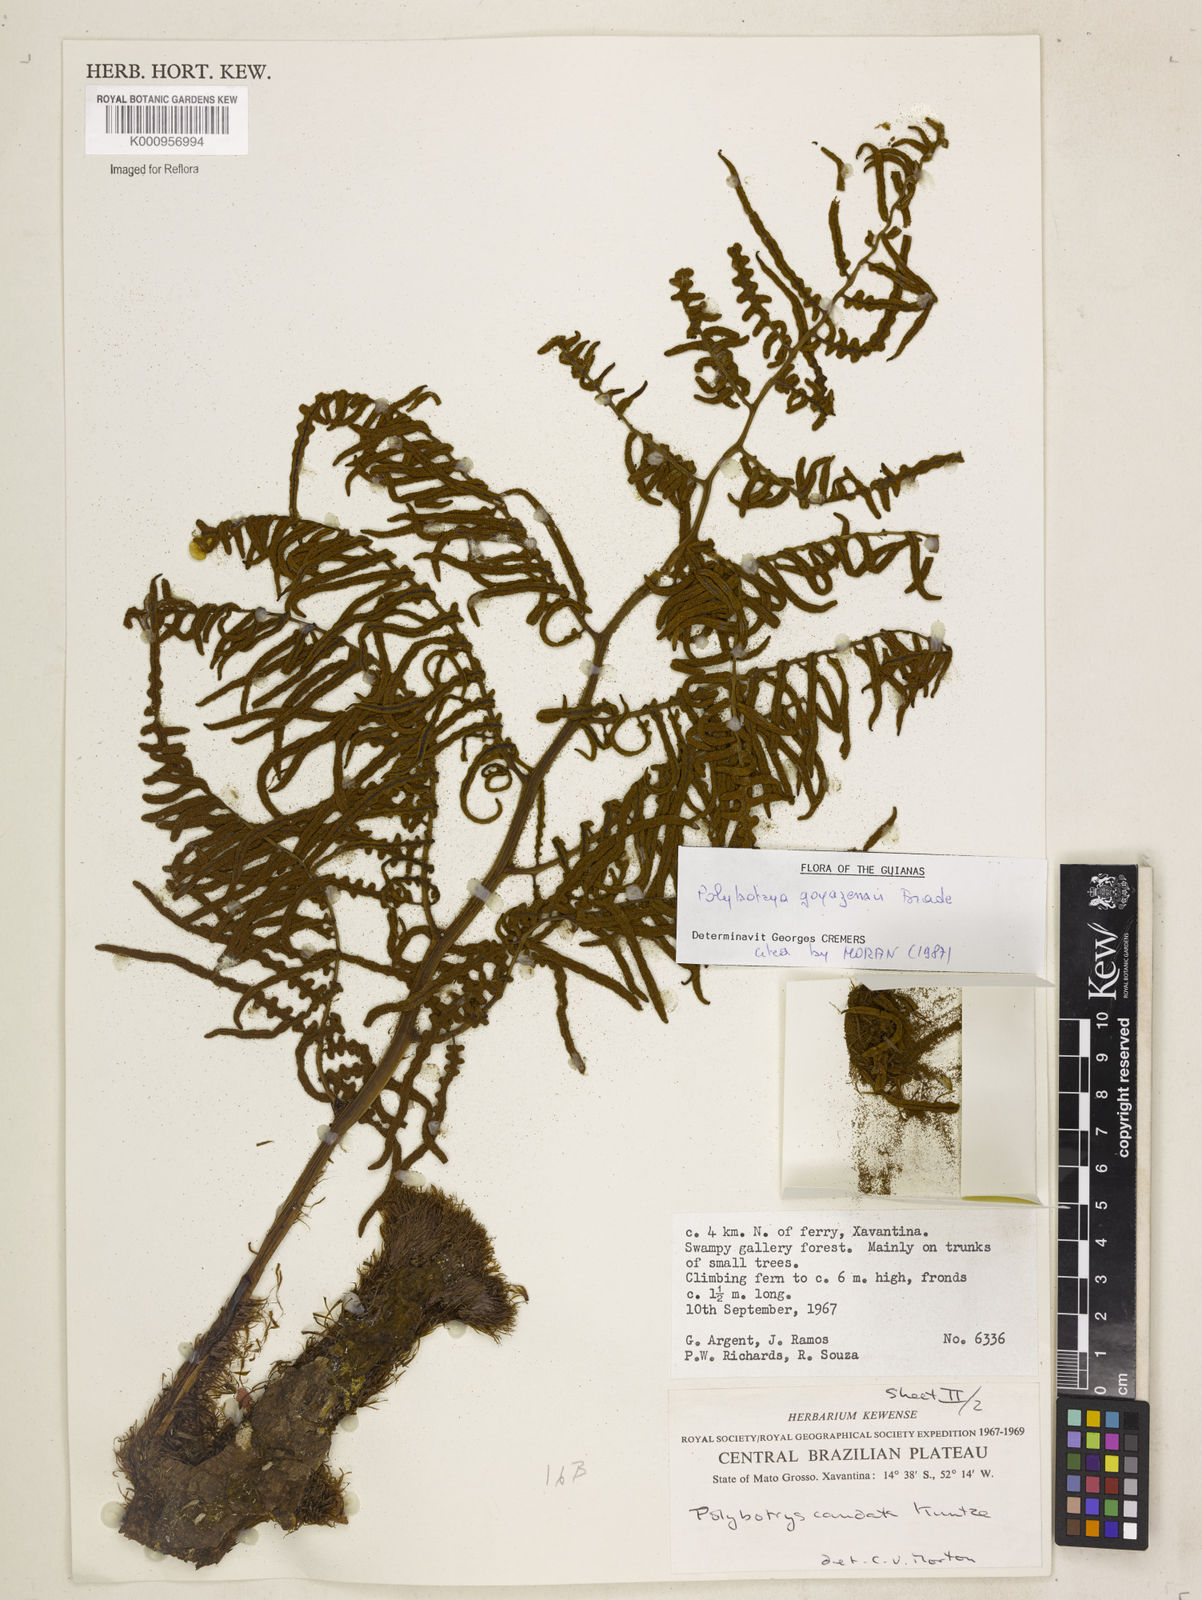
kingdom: Plantae
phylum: Tracheophyta
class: Polypodiopsida
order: Polypodiales
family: Dryopteridaceae
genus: Polybotrya
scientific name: Polybotrya goyazensis
